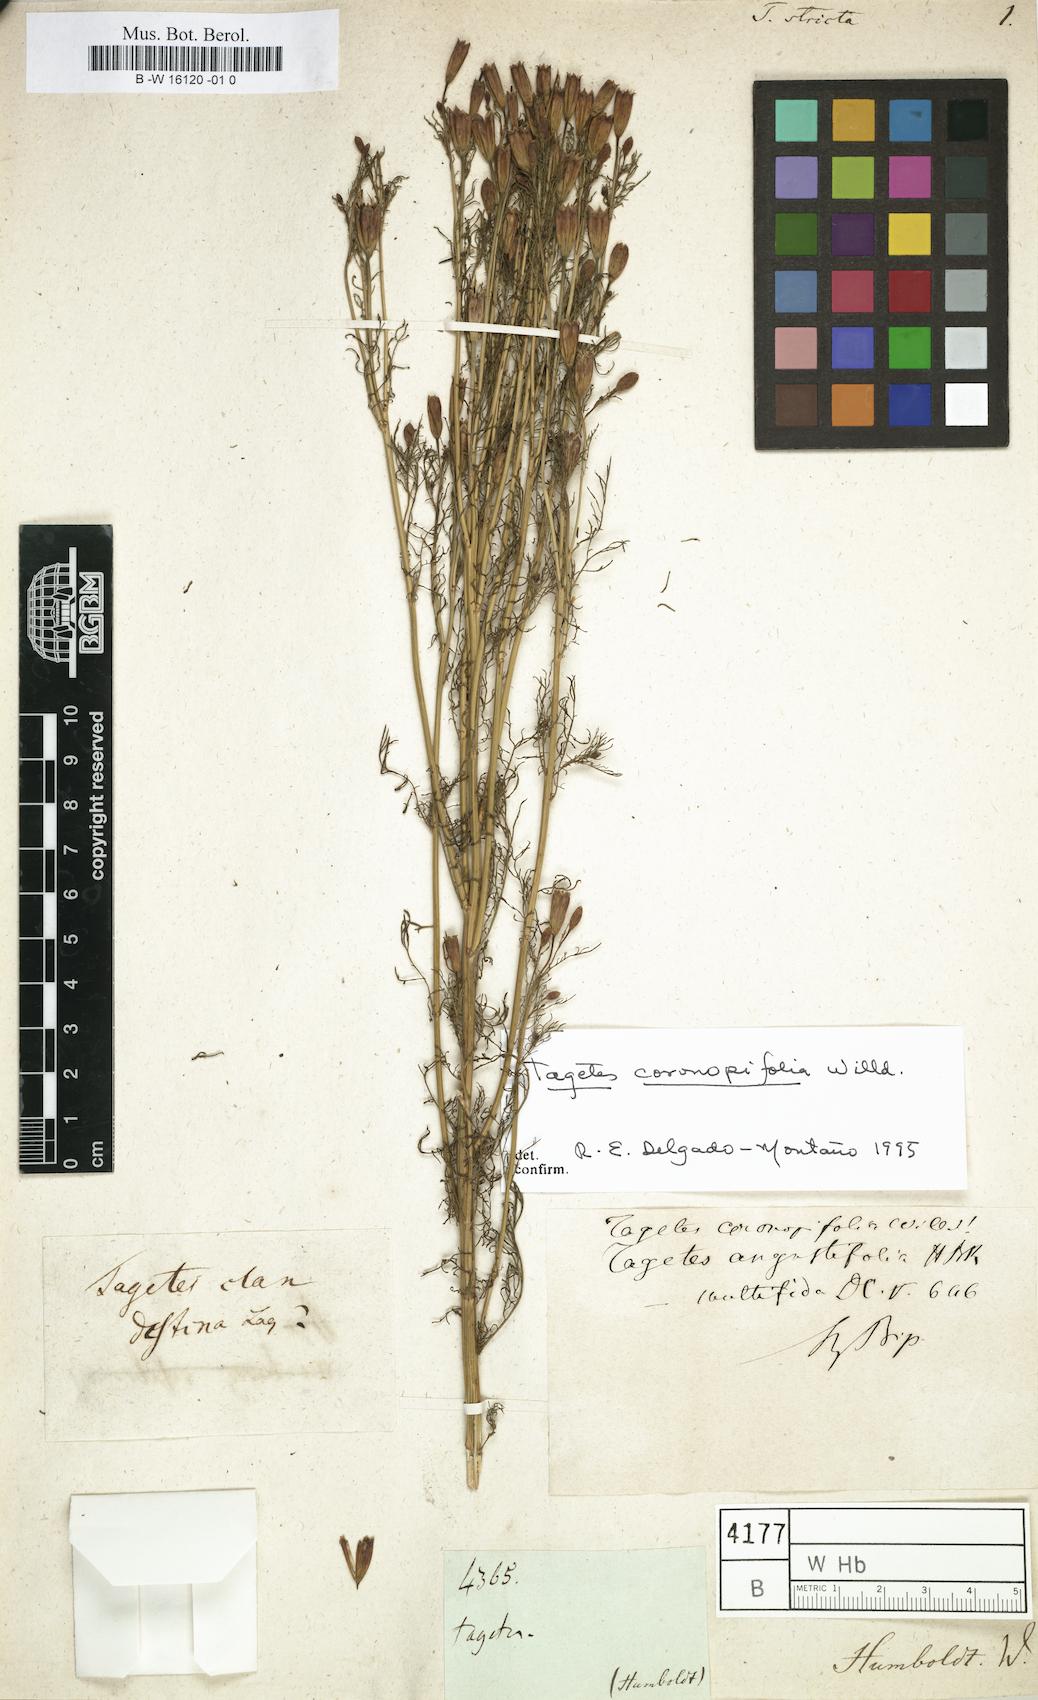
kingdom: Plantae
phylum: Tracheophyta
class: Magnoliopsida
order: Asterales
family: Asteraceae
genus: Tagetes
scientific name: Tagetes
